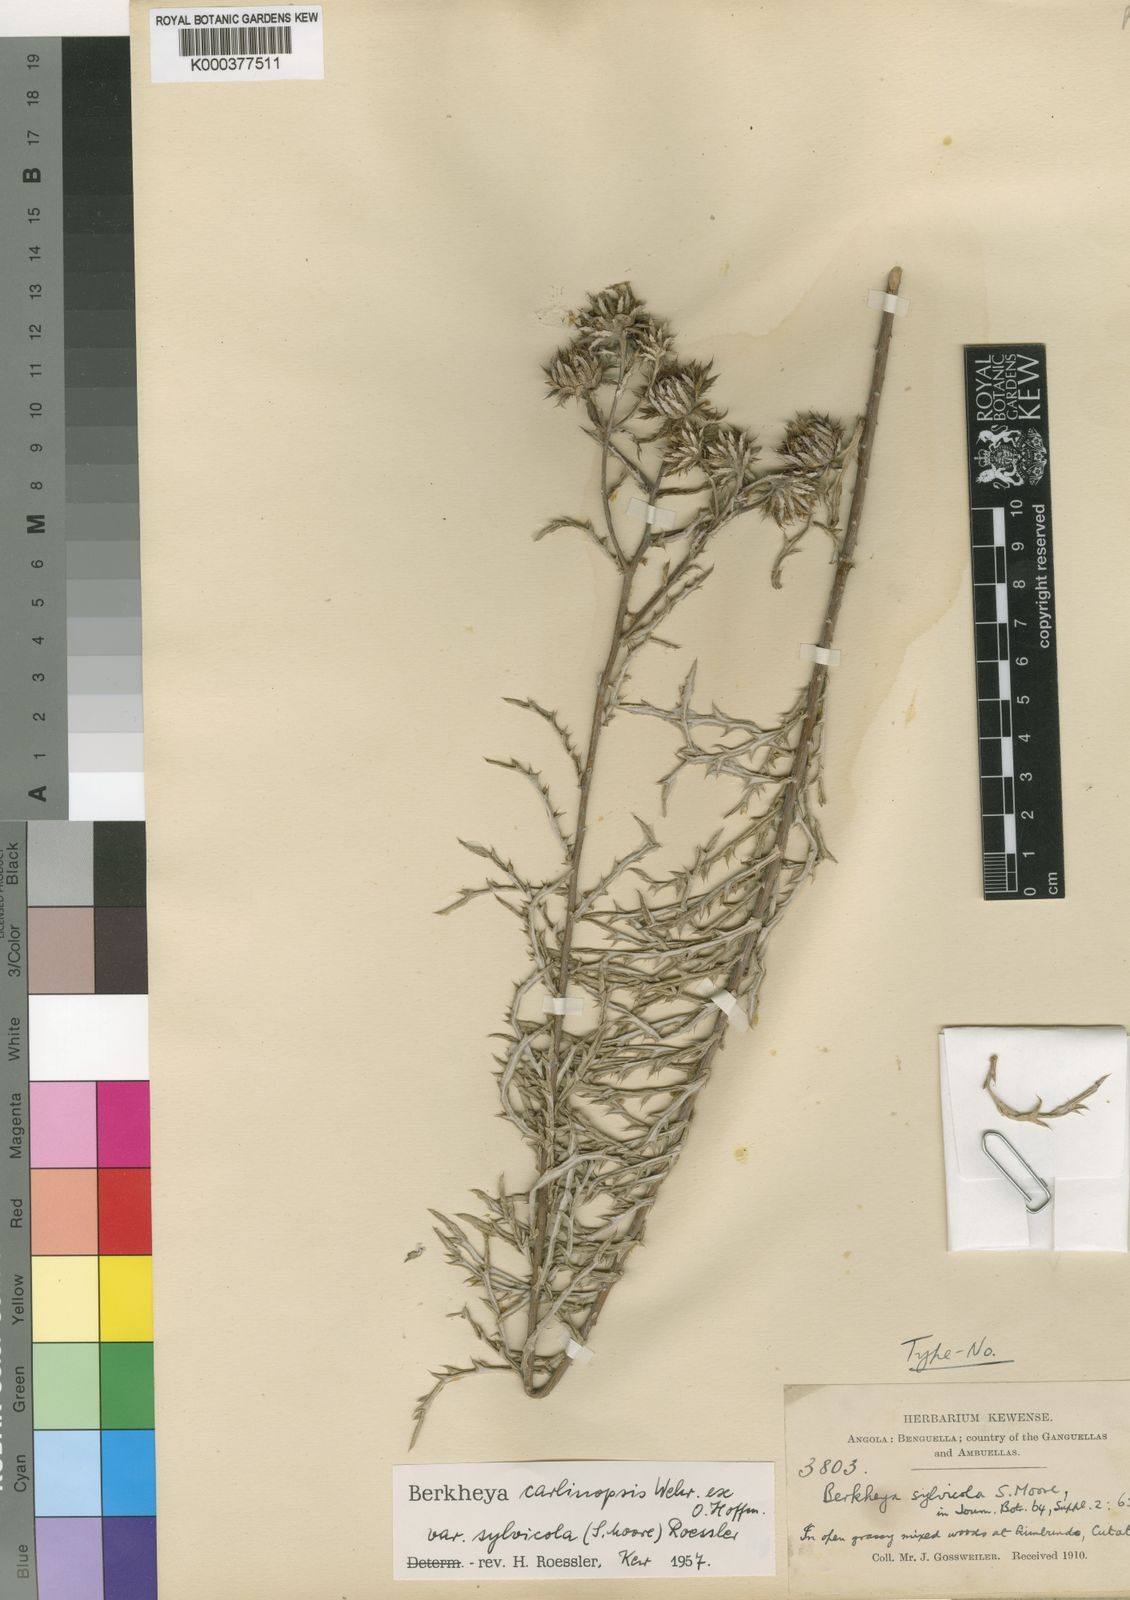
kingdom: Plantae
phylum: Tracheophyta
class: Magnoliopsida
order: Asterales
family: Asteraceae
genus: Berkheya
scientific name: Berkheya carlinopsis
